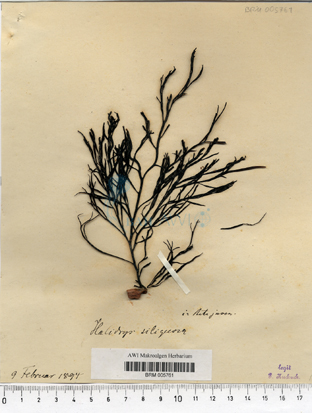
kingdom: Chromista
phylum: Ochrophyta
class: Phaeophyceae
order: Fucales
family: Sargassaceae
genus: Halidrys
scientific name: Halidrys siliquosa
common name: Sea oak
